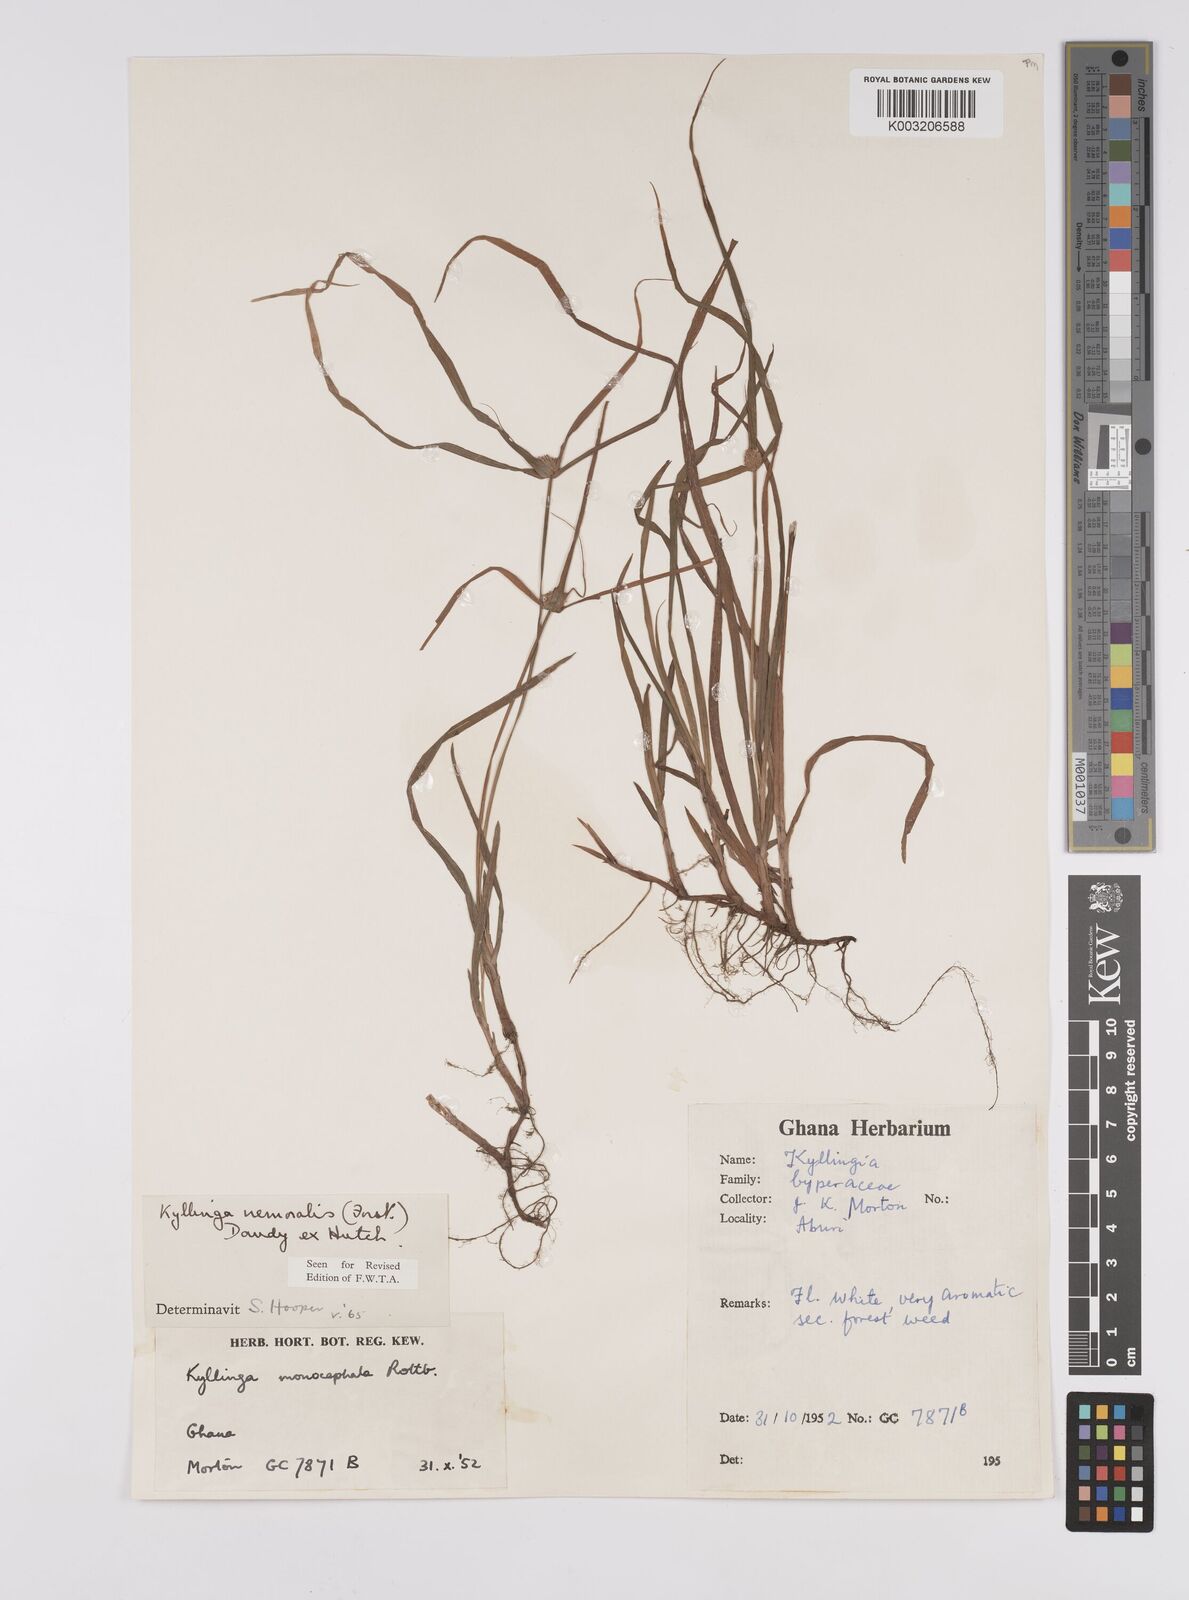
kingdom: Plantae
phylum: Tracheophyta
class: Liliopsida
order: Poales
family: Cyperaceae
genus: Cyperus
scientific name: Cyperus nemoralis
